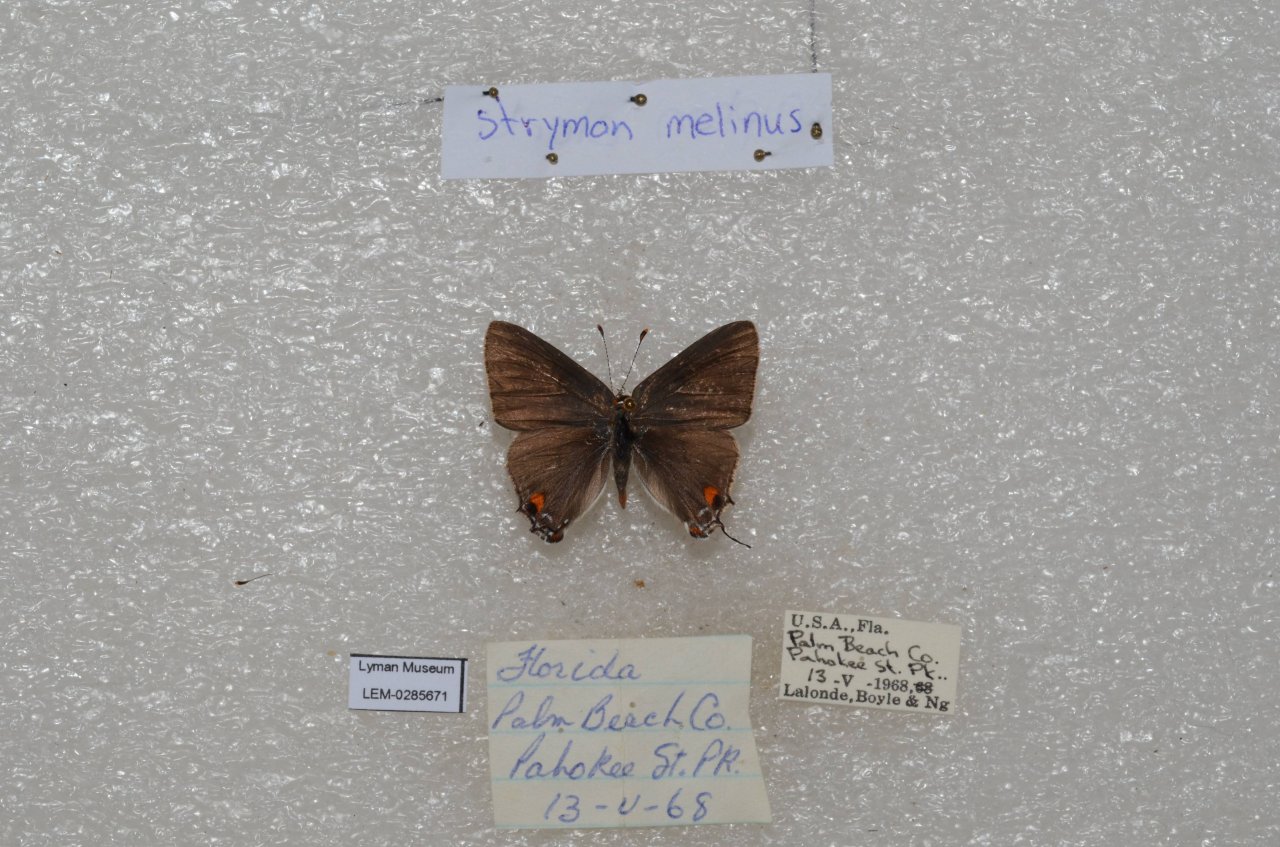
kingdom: Animalia
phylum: Arthropoda
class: Insecta
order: Lepidoptera
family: Lycaenidae
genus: Strymon
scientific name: Strymon melinus
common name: Gray Hairstreak
